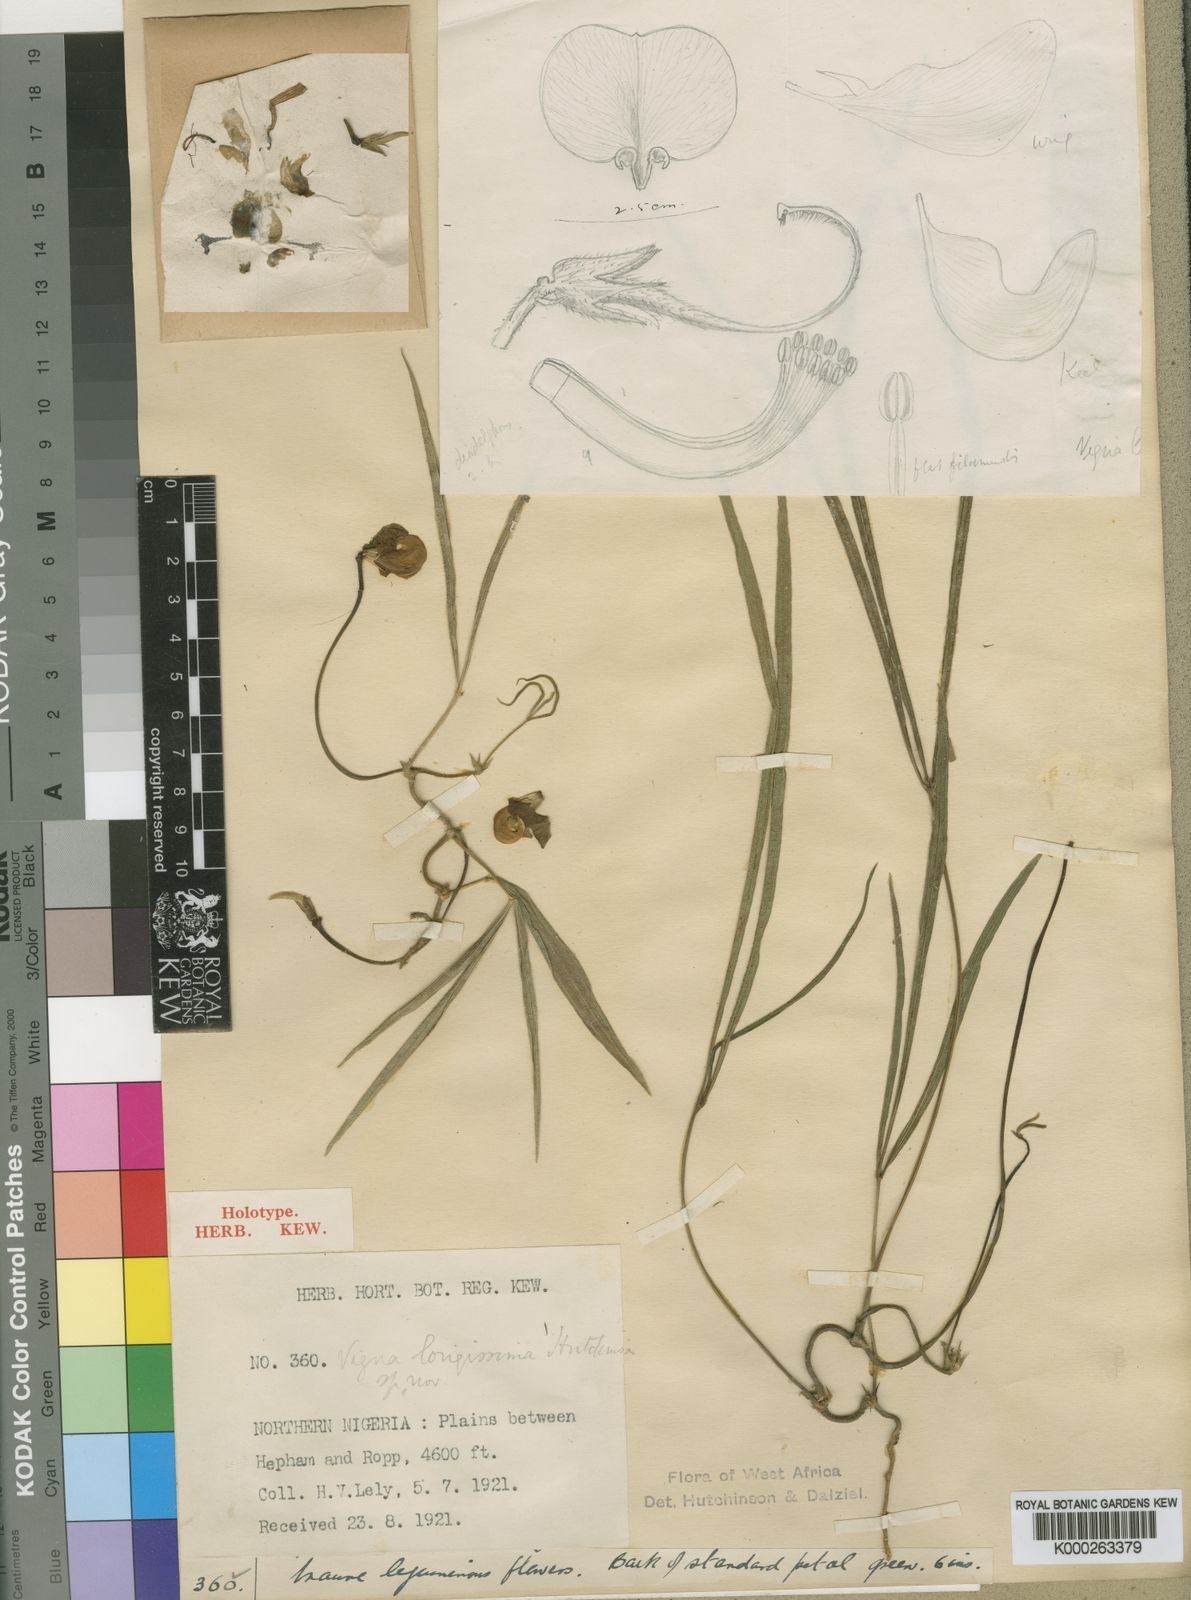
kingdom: Plantae
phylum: Tracheophyta
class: Magnoliopsida
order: Fabales
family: Fabaceae
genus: Vigna
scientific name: Vigna longissima
